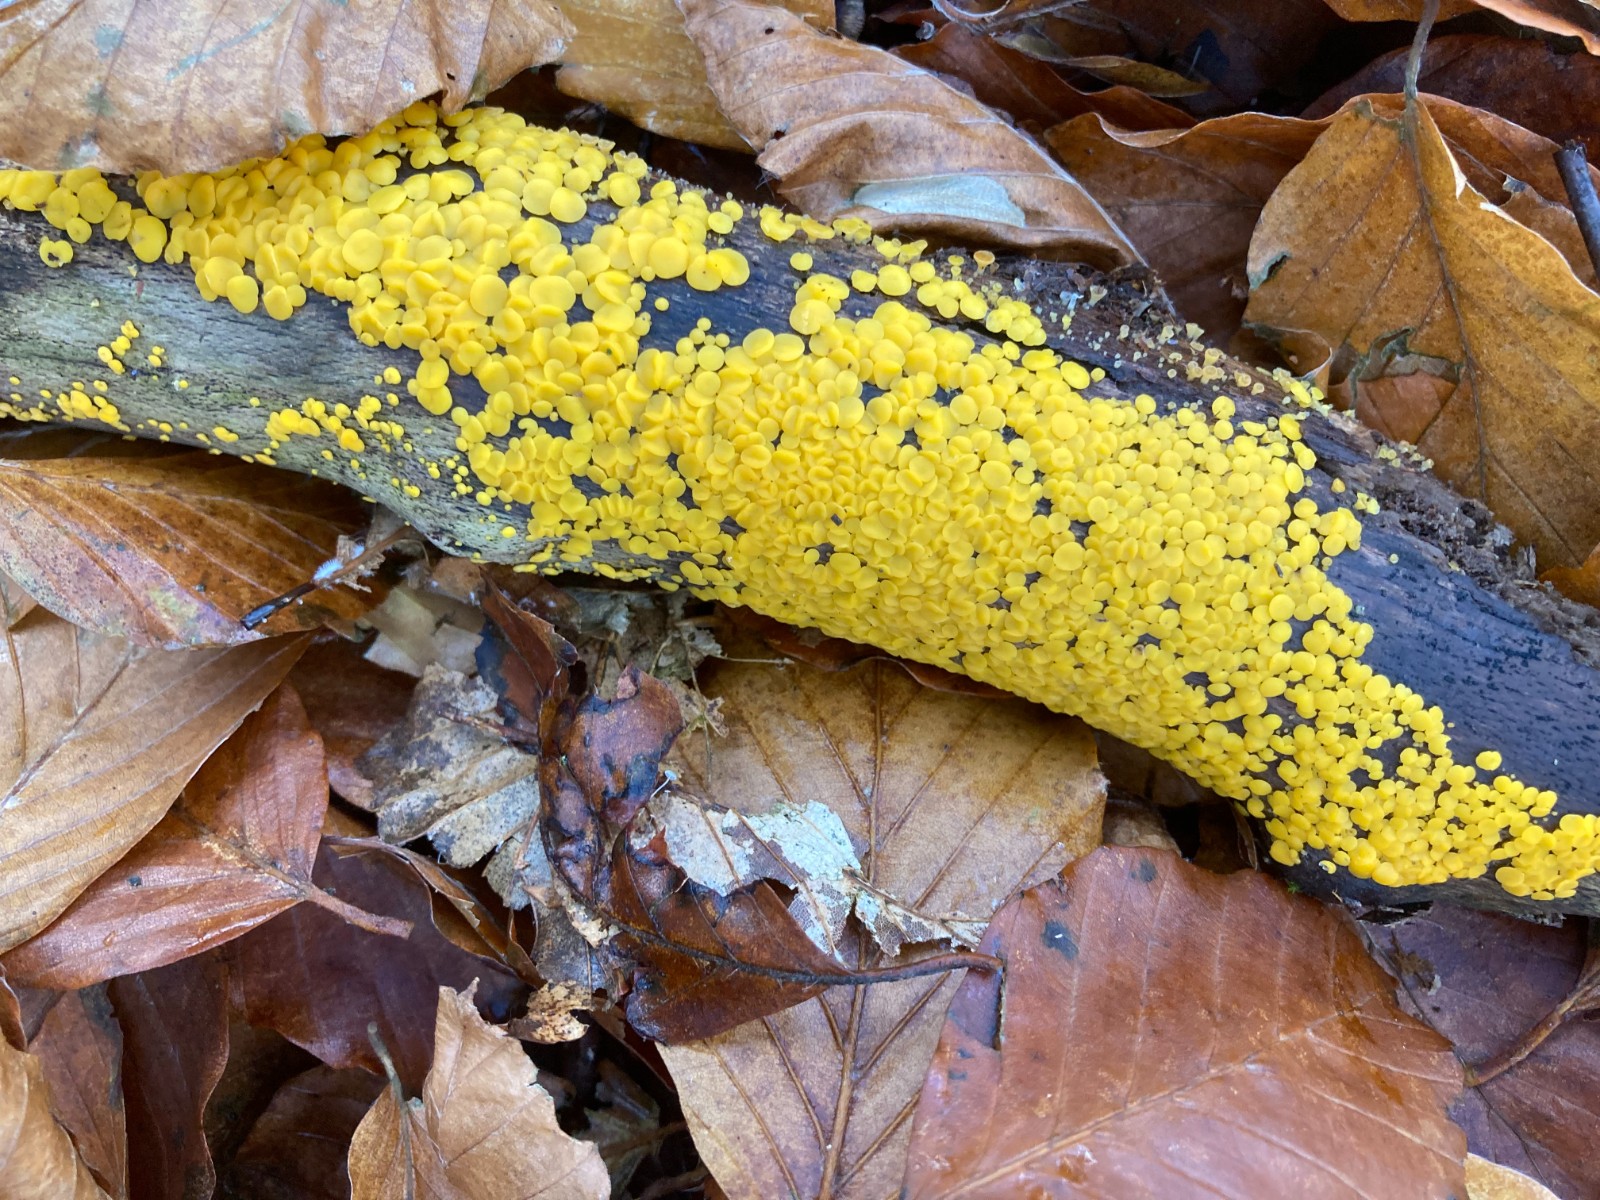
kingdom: Fungi
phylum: Ascomycota
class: Leotiomycetes
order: Helotiales
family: Pezizellaceae
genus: Calycina
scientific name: Calycina citrina
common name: almindelig gulskive
